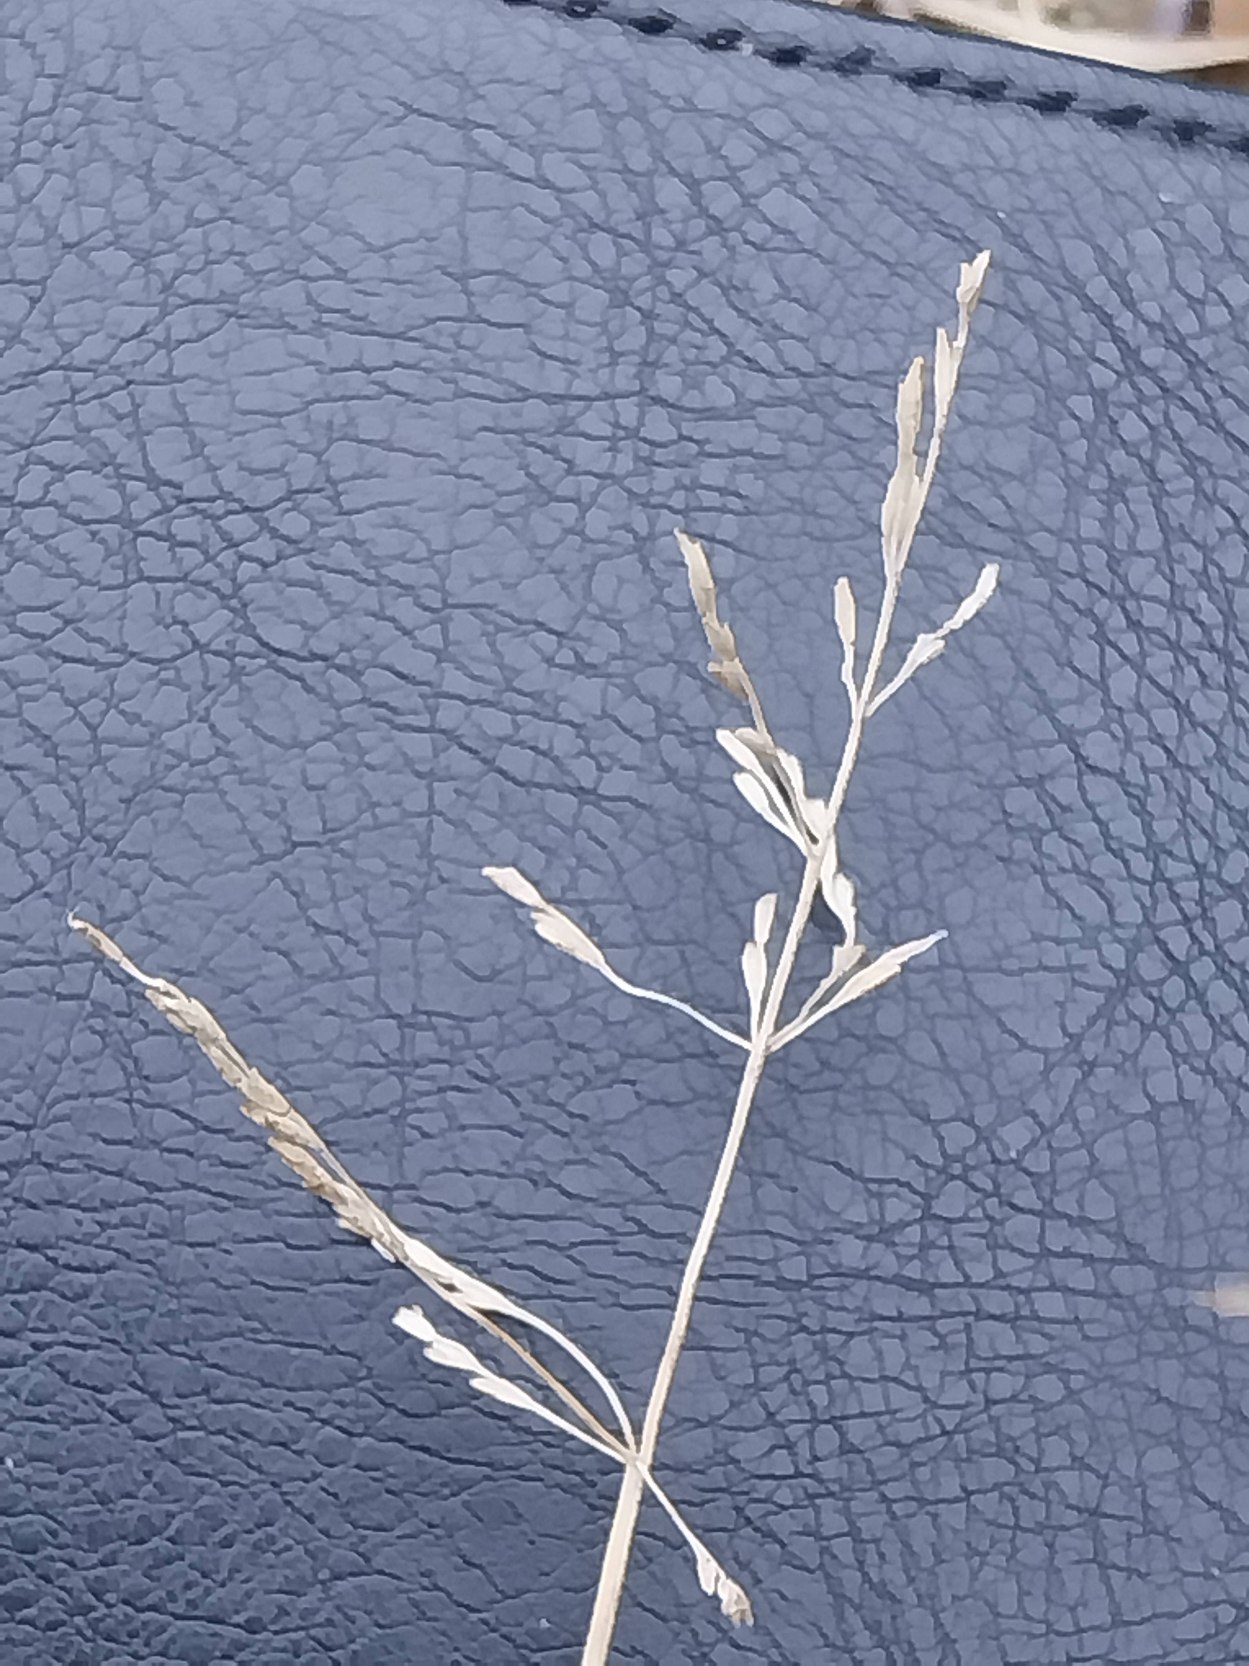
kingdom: Plantae
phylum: Tracheophyta
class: Liliopsida
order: Poales
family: Poaceae
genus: Puccinellia
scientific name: Puccinellia distans
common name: Udspærret annelgræs
